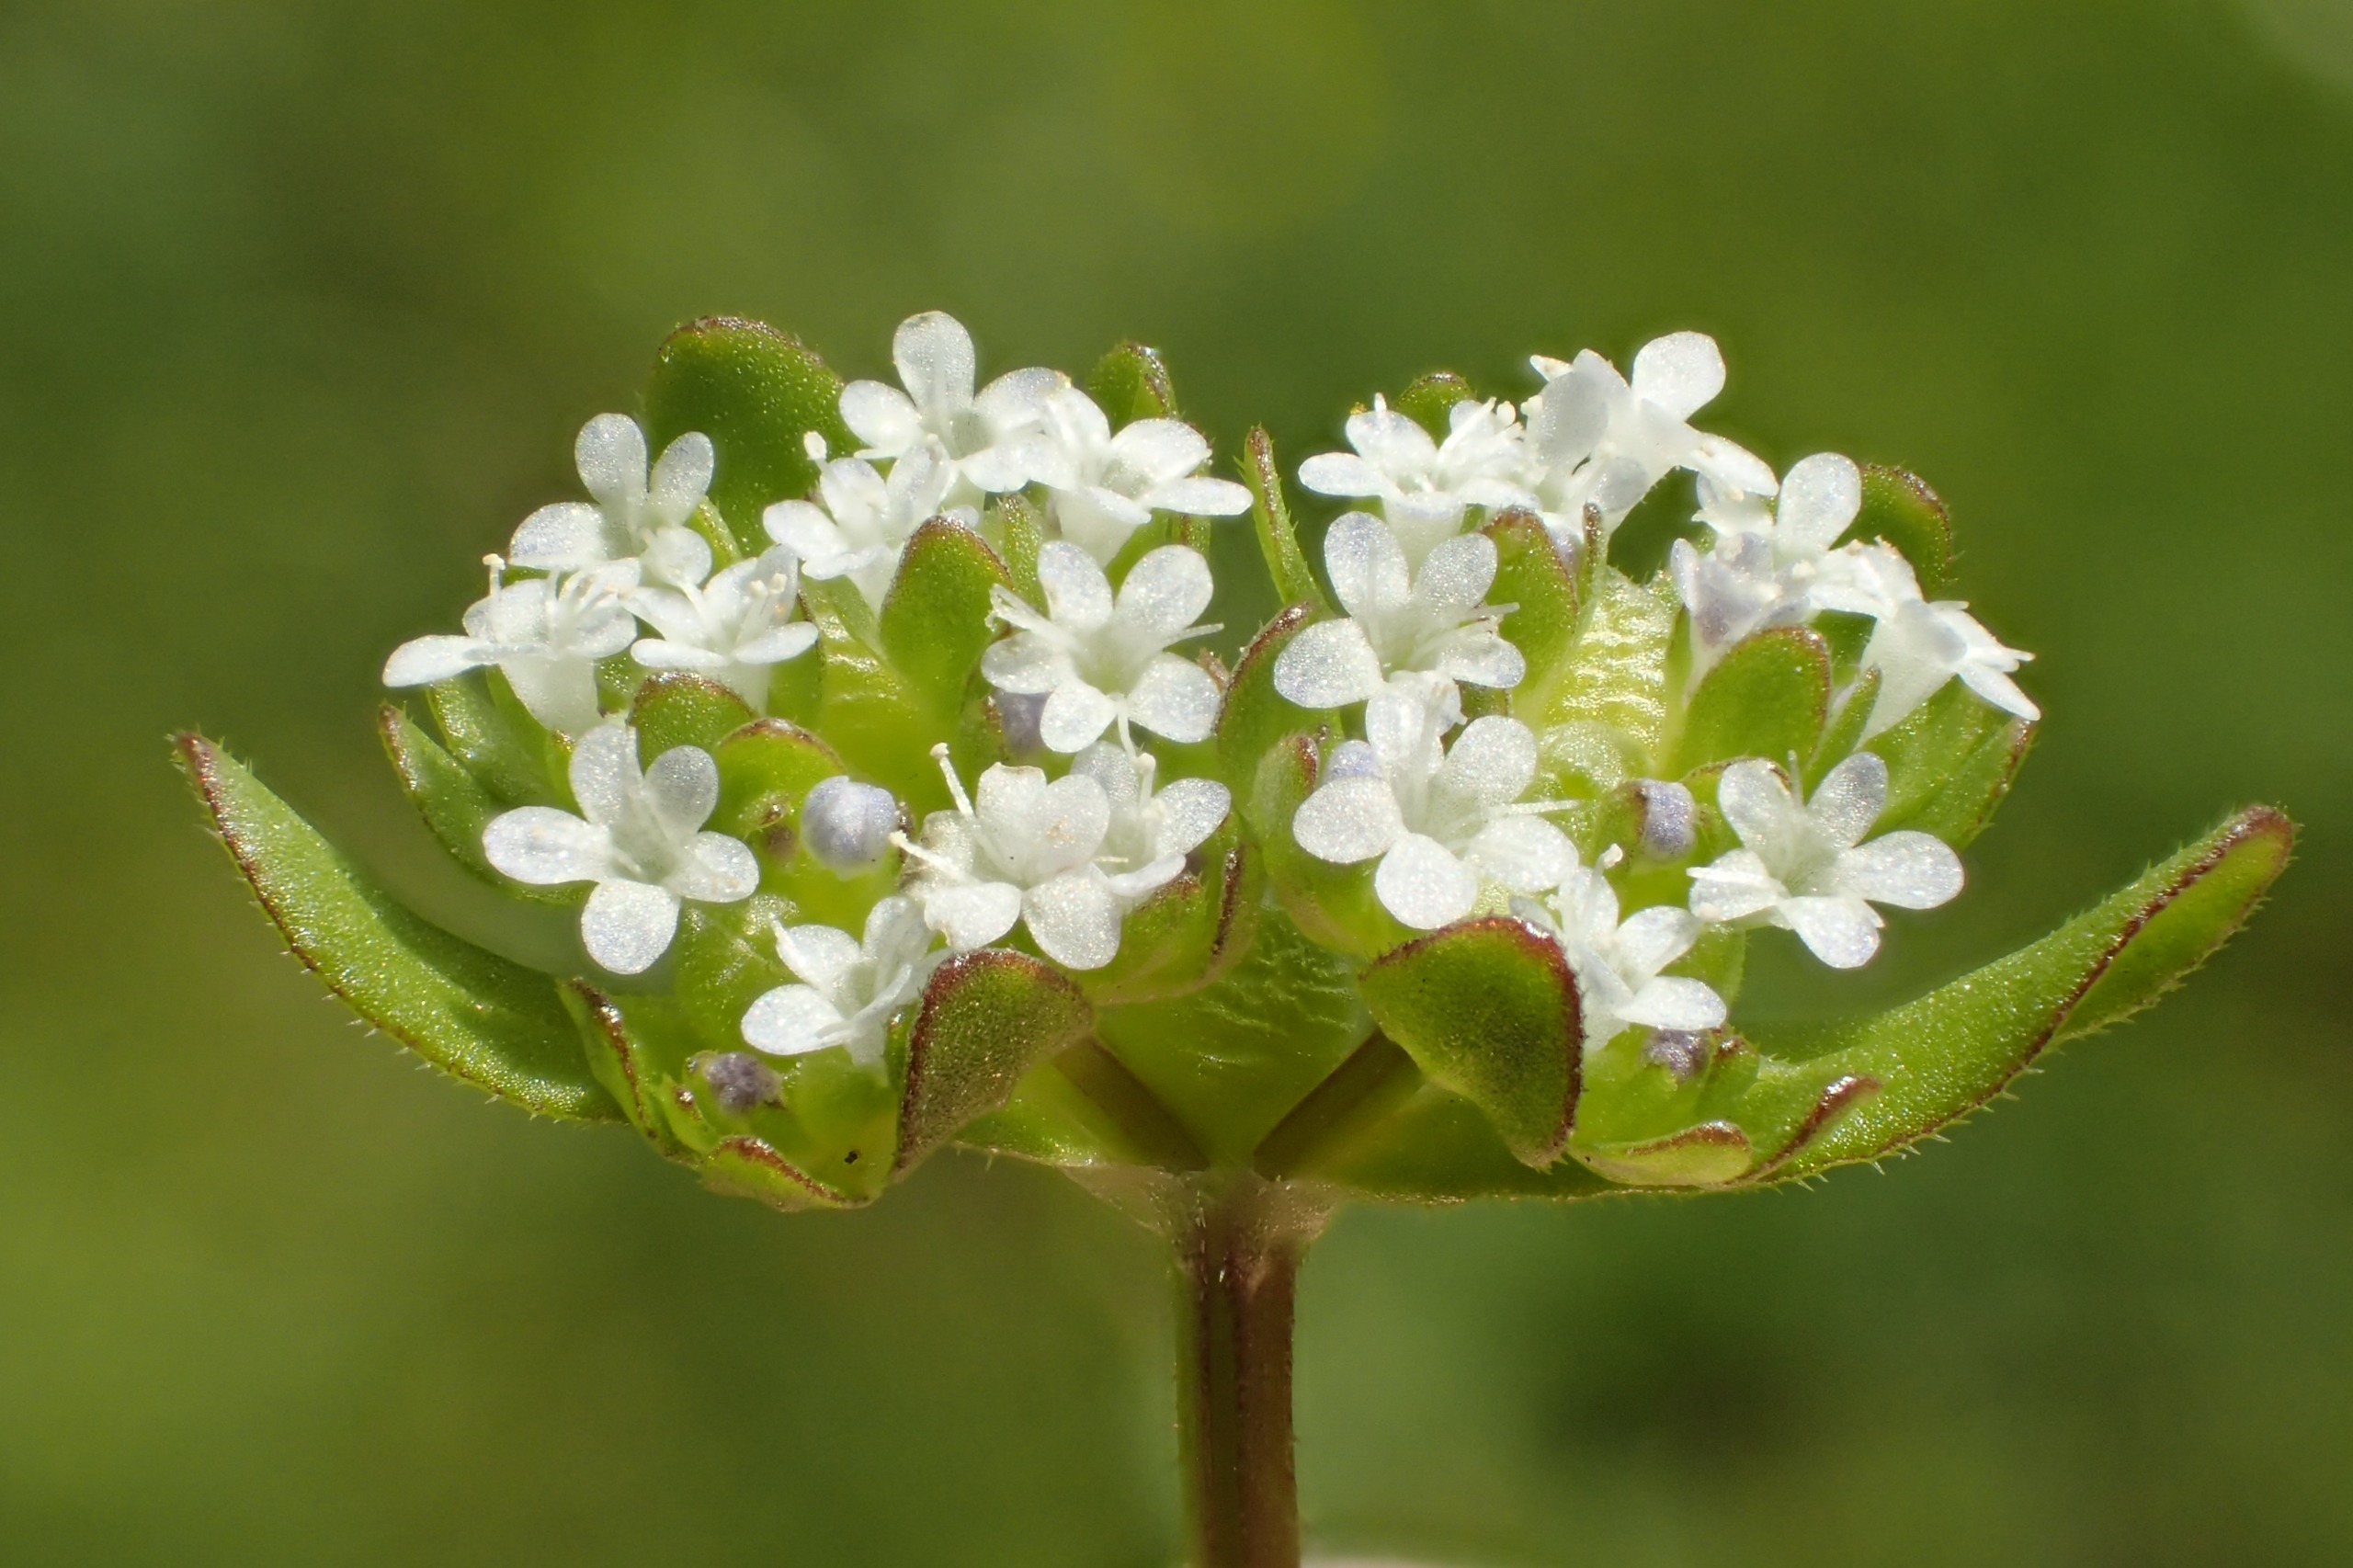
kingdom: Plantae
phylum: Tracheophyta
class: Magnoliopsida
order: Dipsacales
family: Caprifoliaceae
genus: Valerianella
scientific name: Valerianella locusta
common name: Tandfri vårsalat
